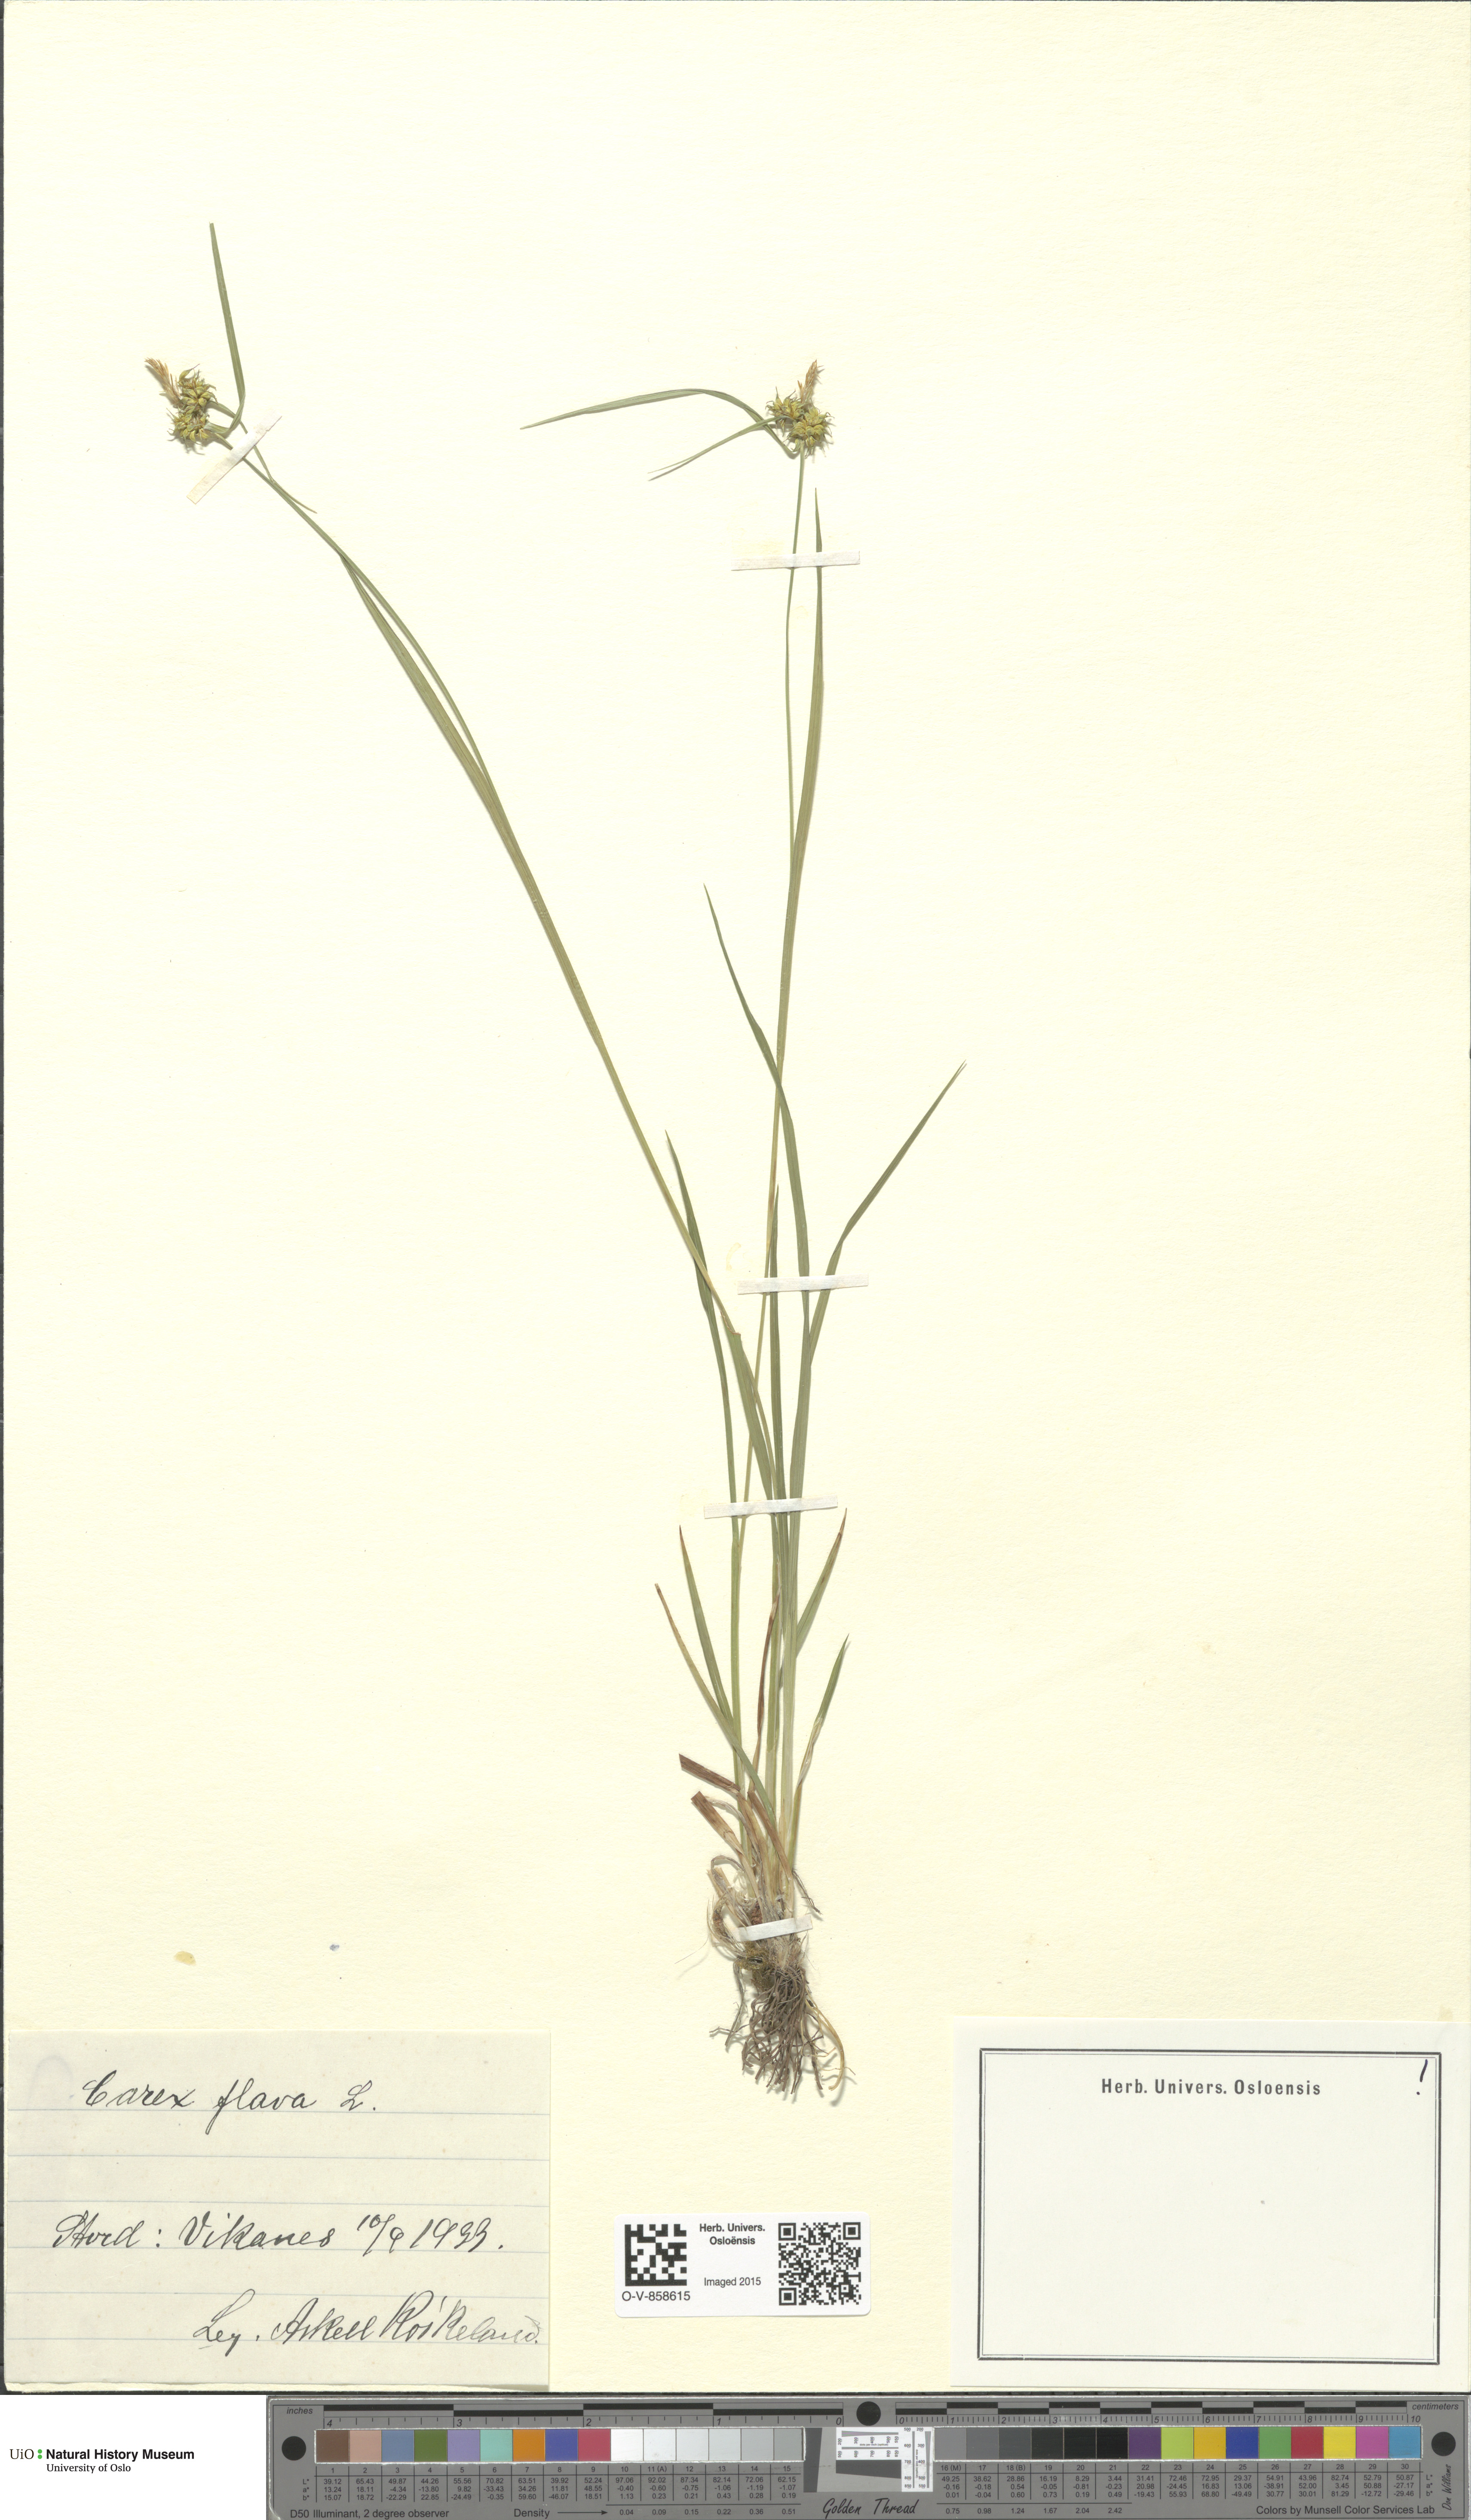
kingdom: Plantae
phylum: Tracheophyta
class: Liliopsida
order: Poales
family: Cyperaceae
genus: Carex
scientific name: Carex flava
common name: Large yellow-sedge
